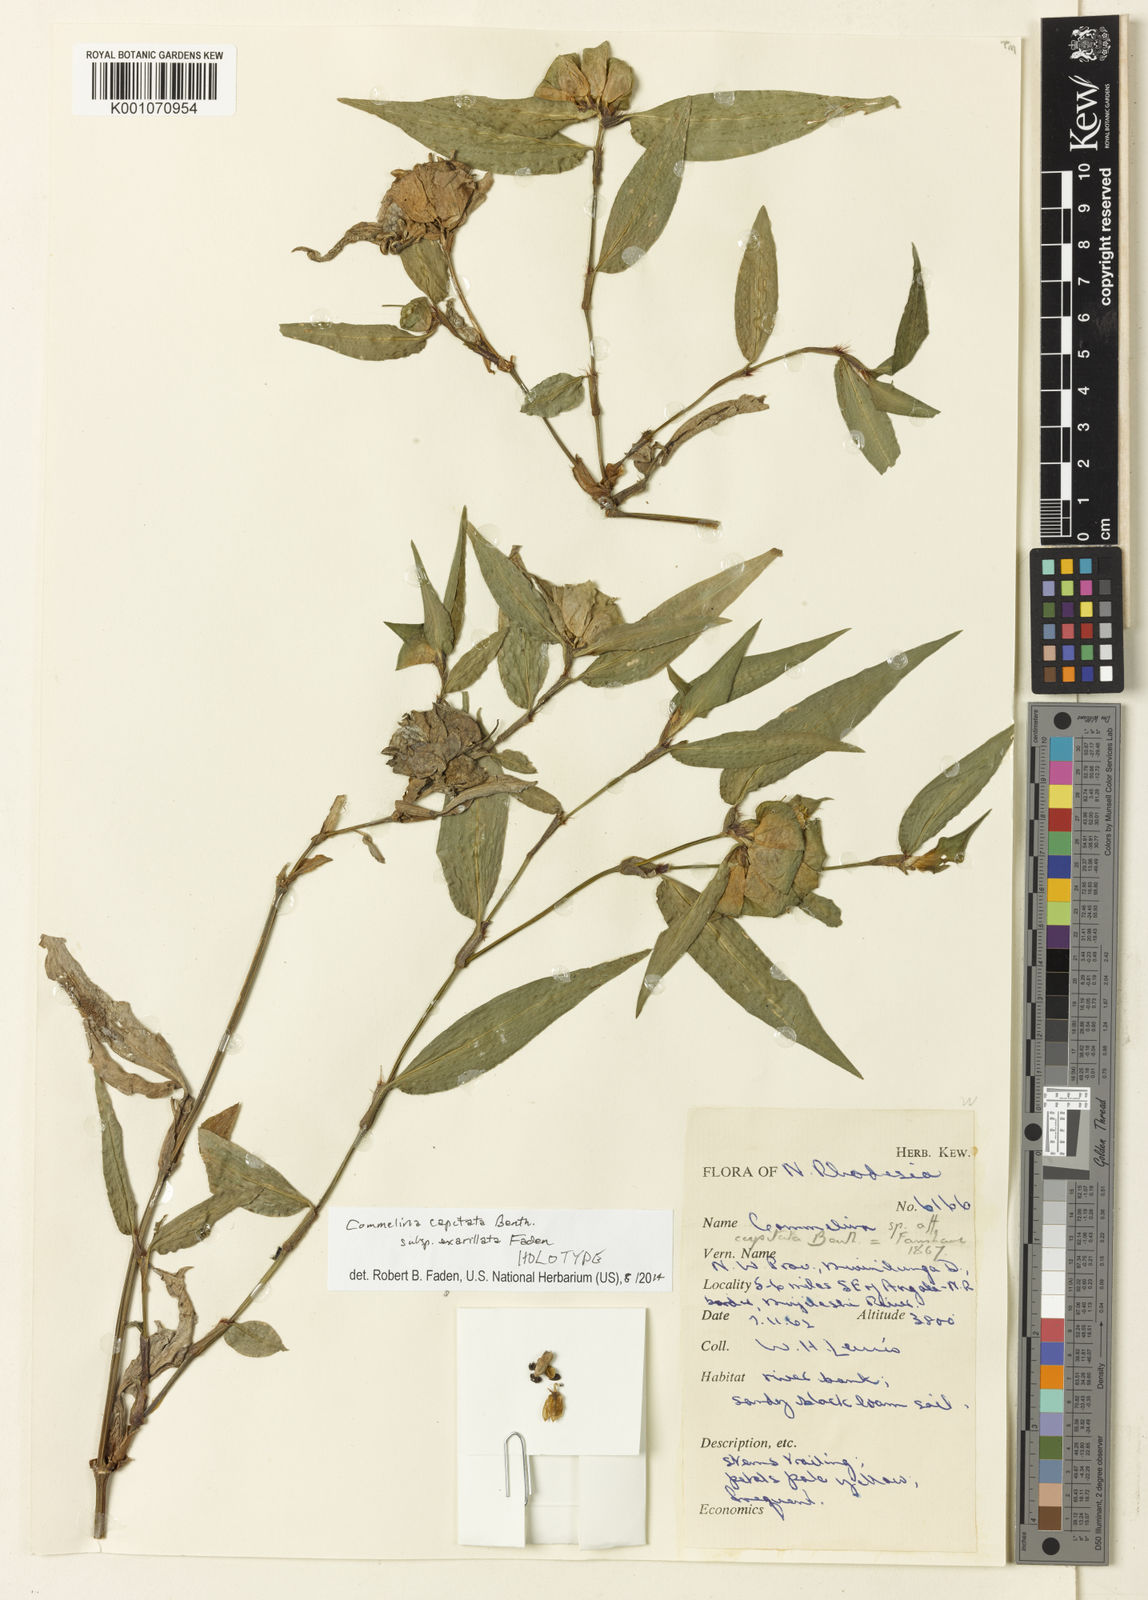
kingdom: Plantae
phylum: Tracheophyta
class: Liliopsida
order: Commelinales
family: Commelinaceae
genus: Commelina
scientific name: Commelina capitata
